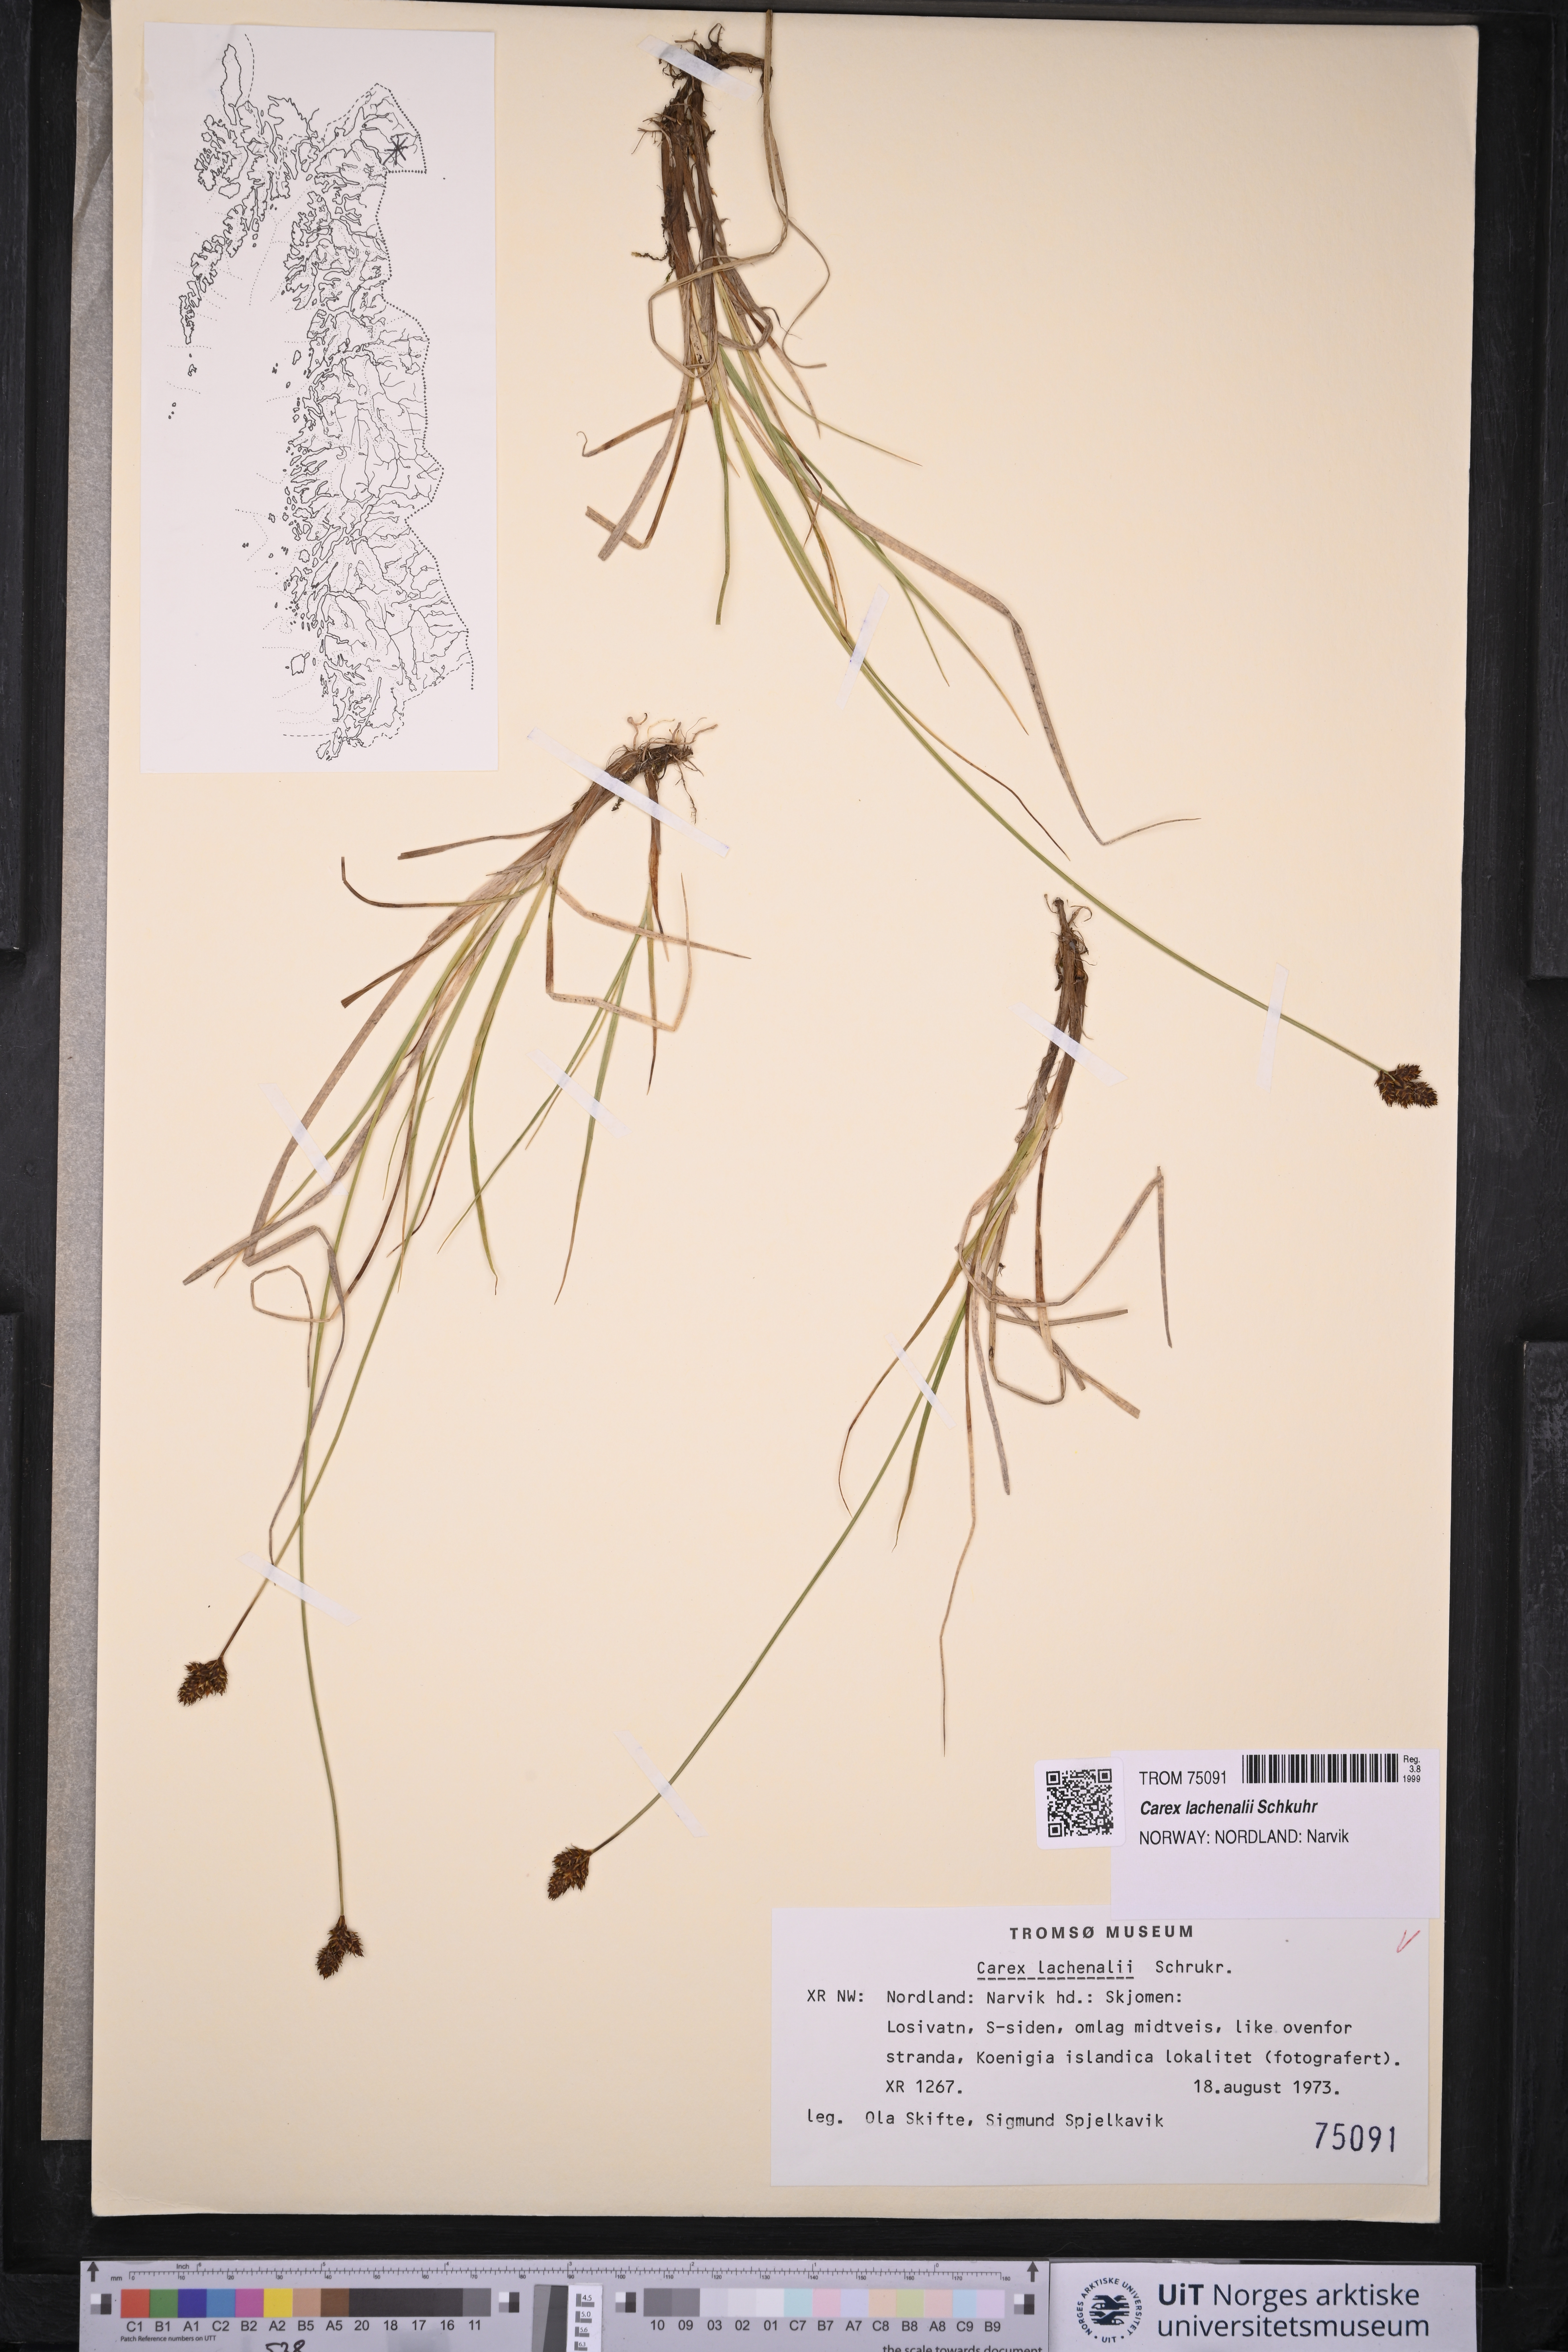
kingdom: Plantae
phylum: Tracheophyta
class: Liliopsida
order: Poales
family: Cyperaceae
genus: Carex
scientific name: Carex lachenalii
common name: Hare's-foot sedge
